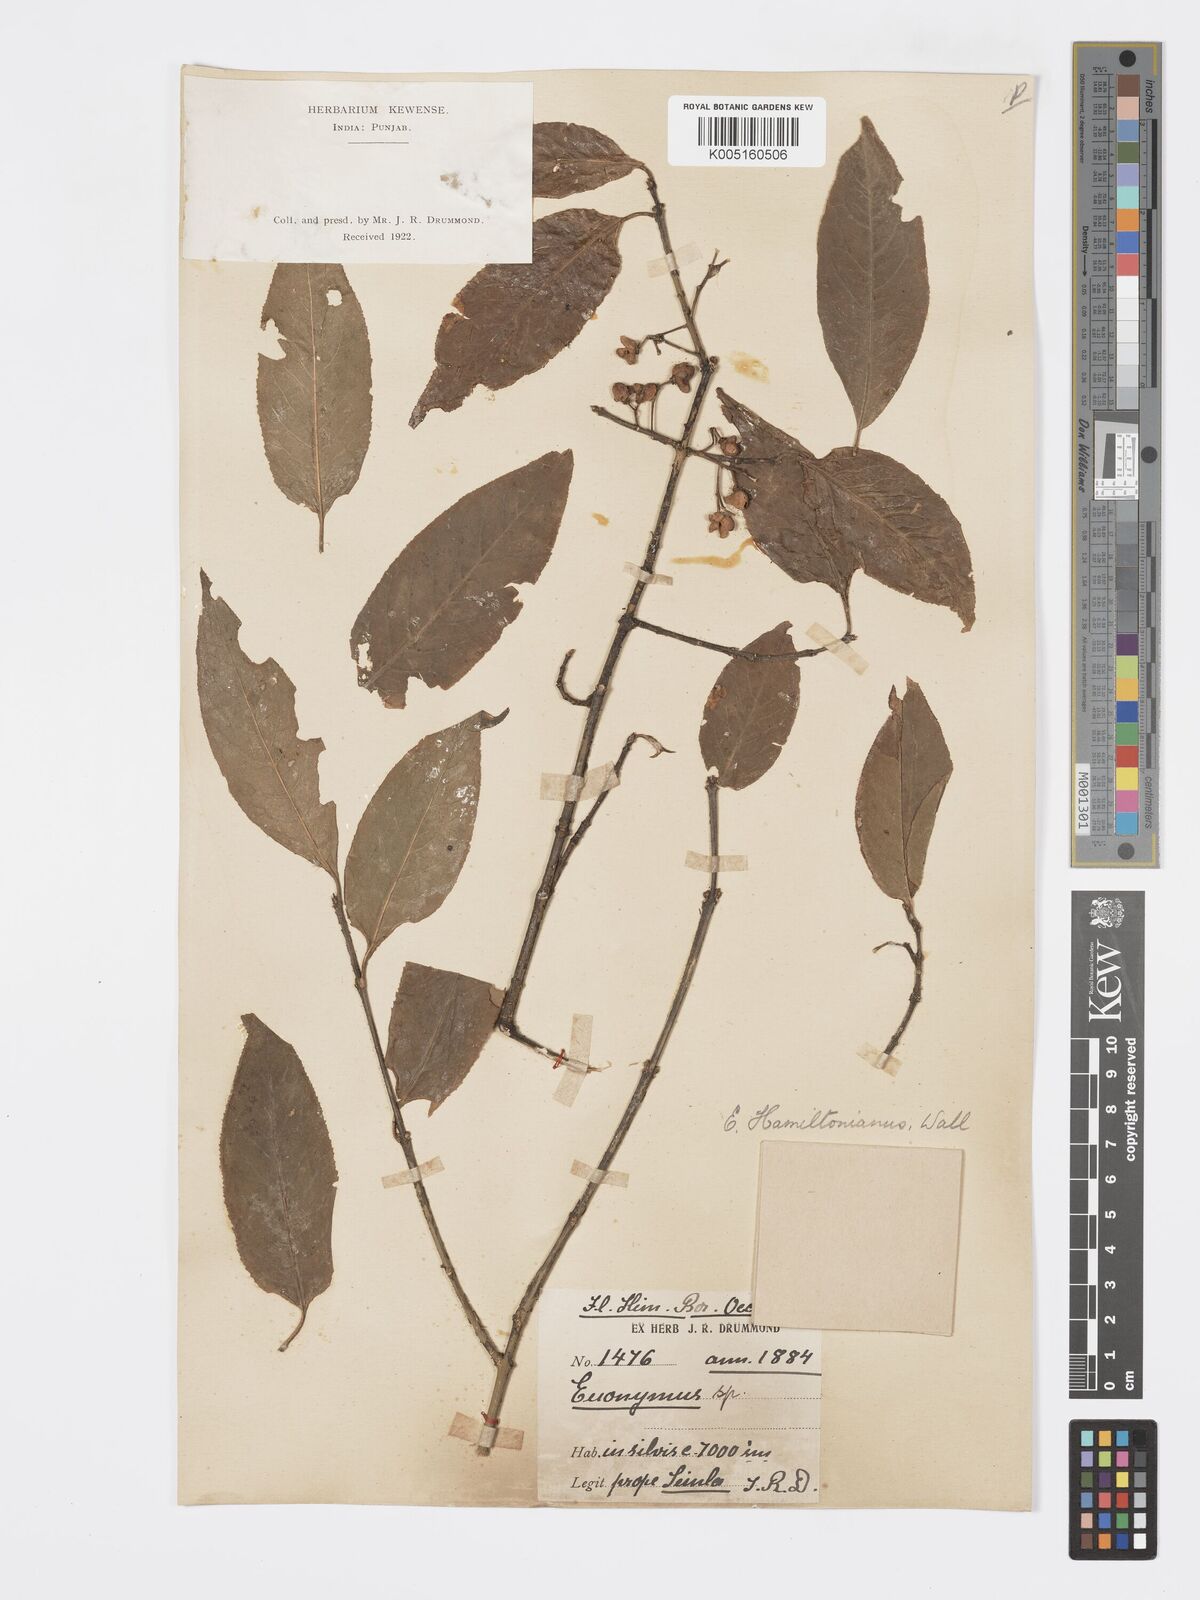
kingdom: Plantae
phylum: Tracheophyta
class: Magnoliopsida
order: Celastrales
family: Celastraceae
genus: Euonymus
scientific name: Euonymus
